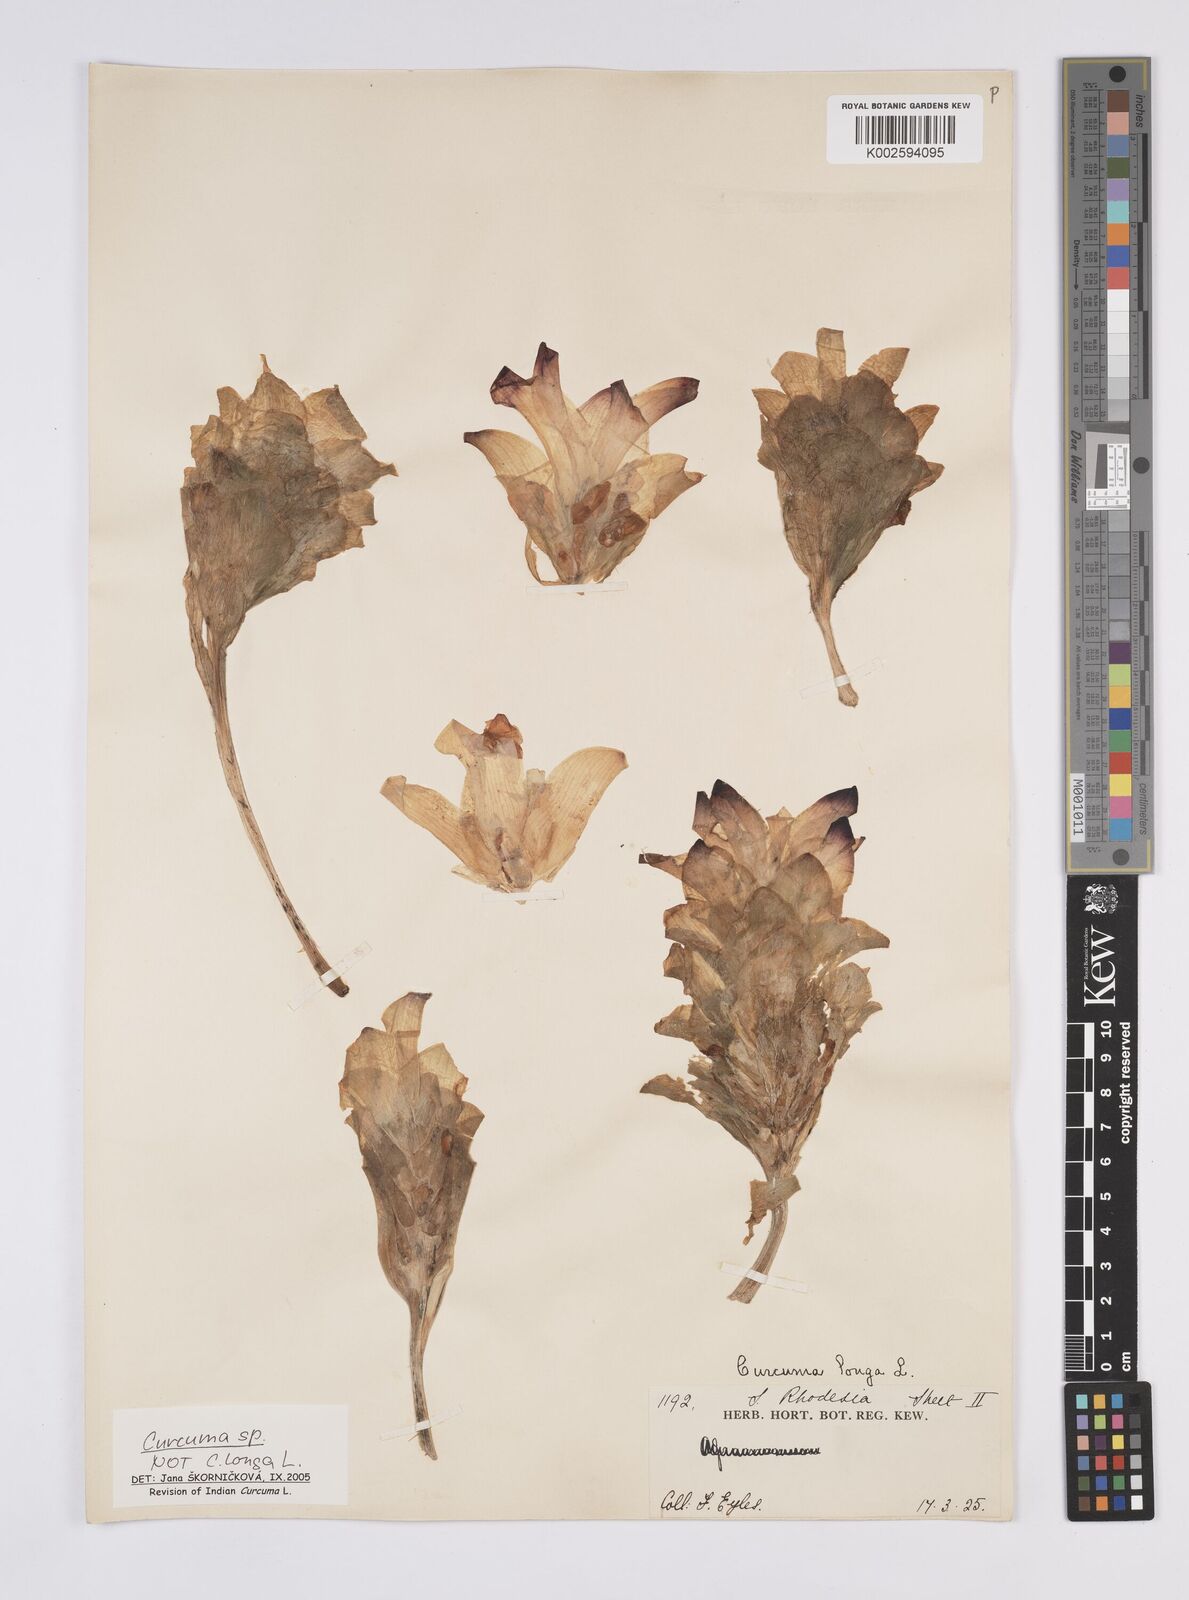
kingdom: Plantae
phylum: Tracheophyta
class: Liliopsida
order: Zingiberales
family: Zingiberaceae
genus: Curcuma
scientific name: Curcuma
